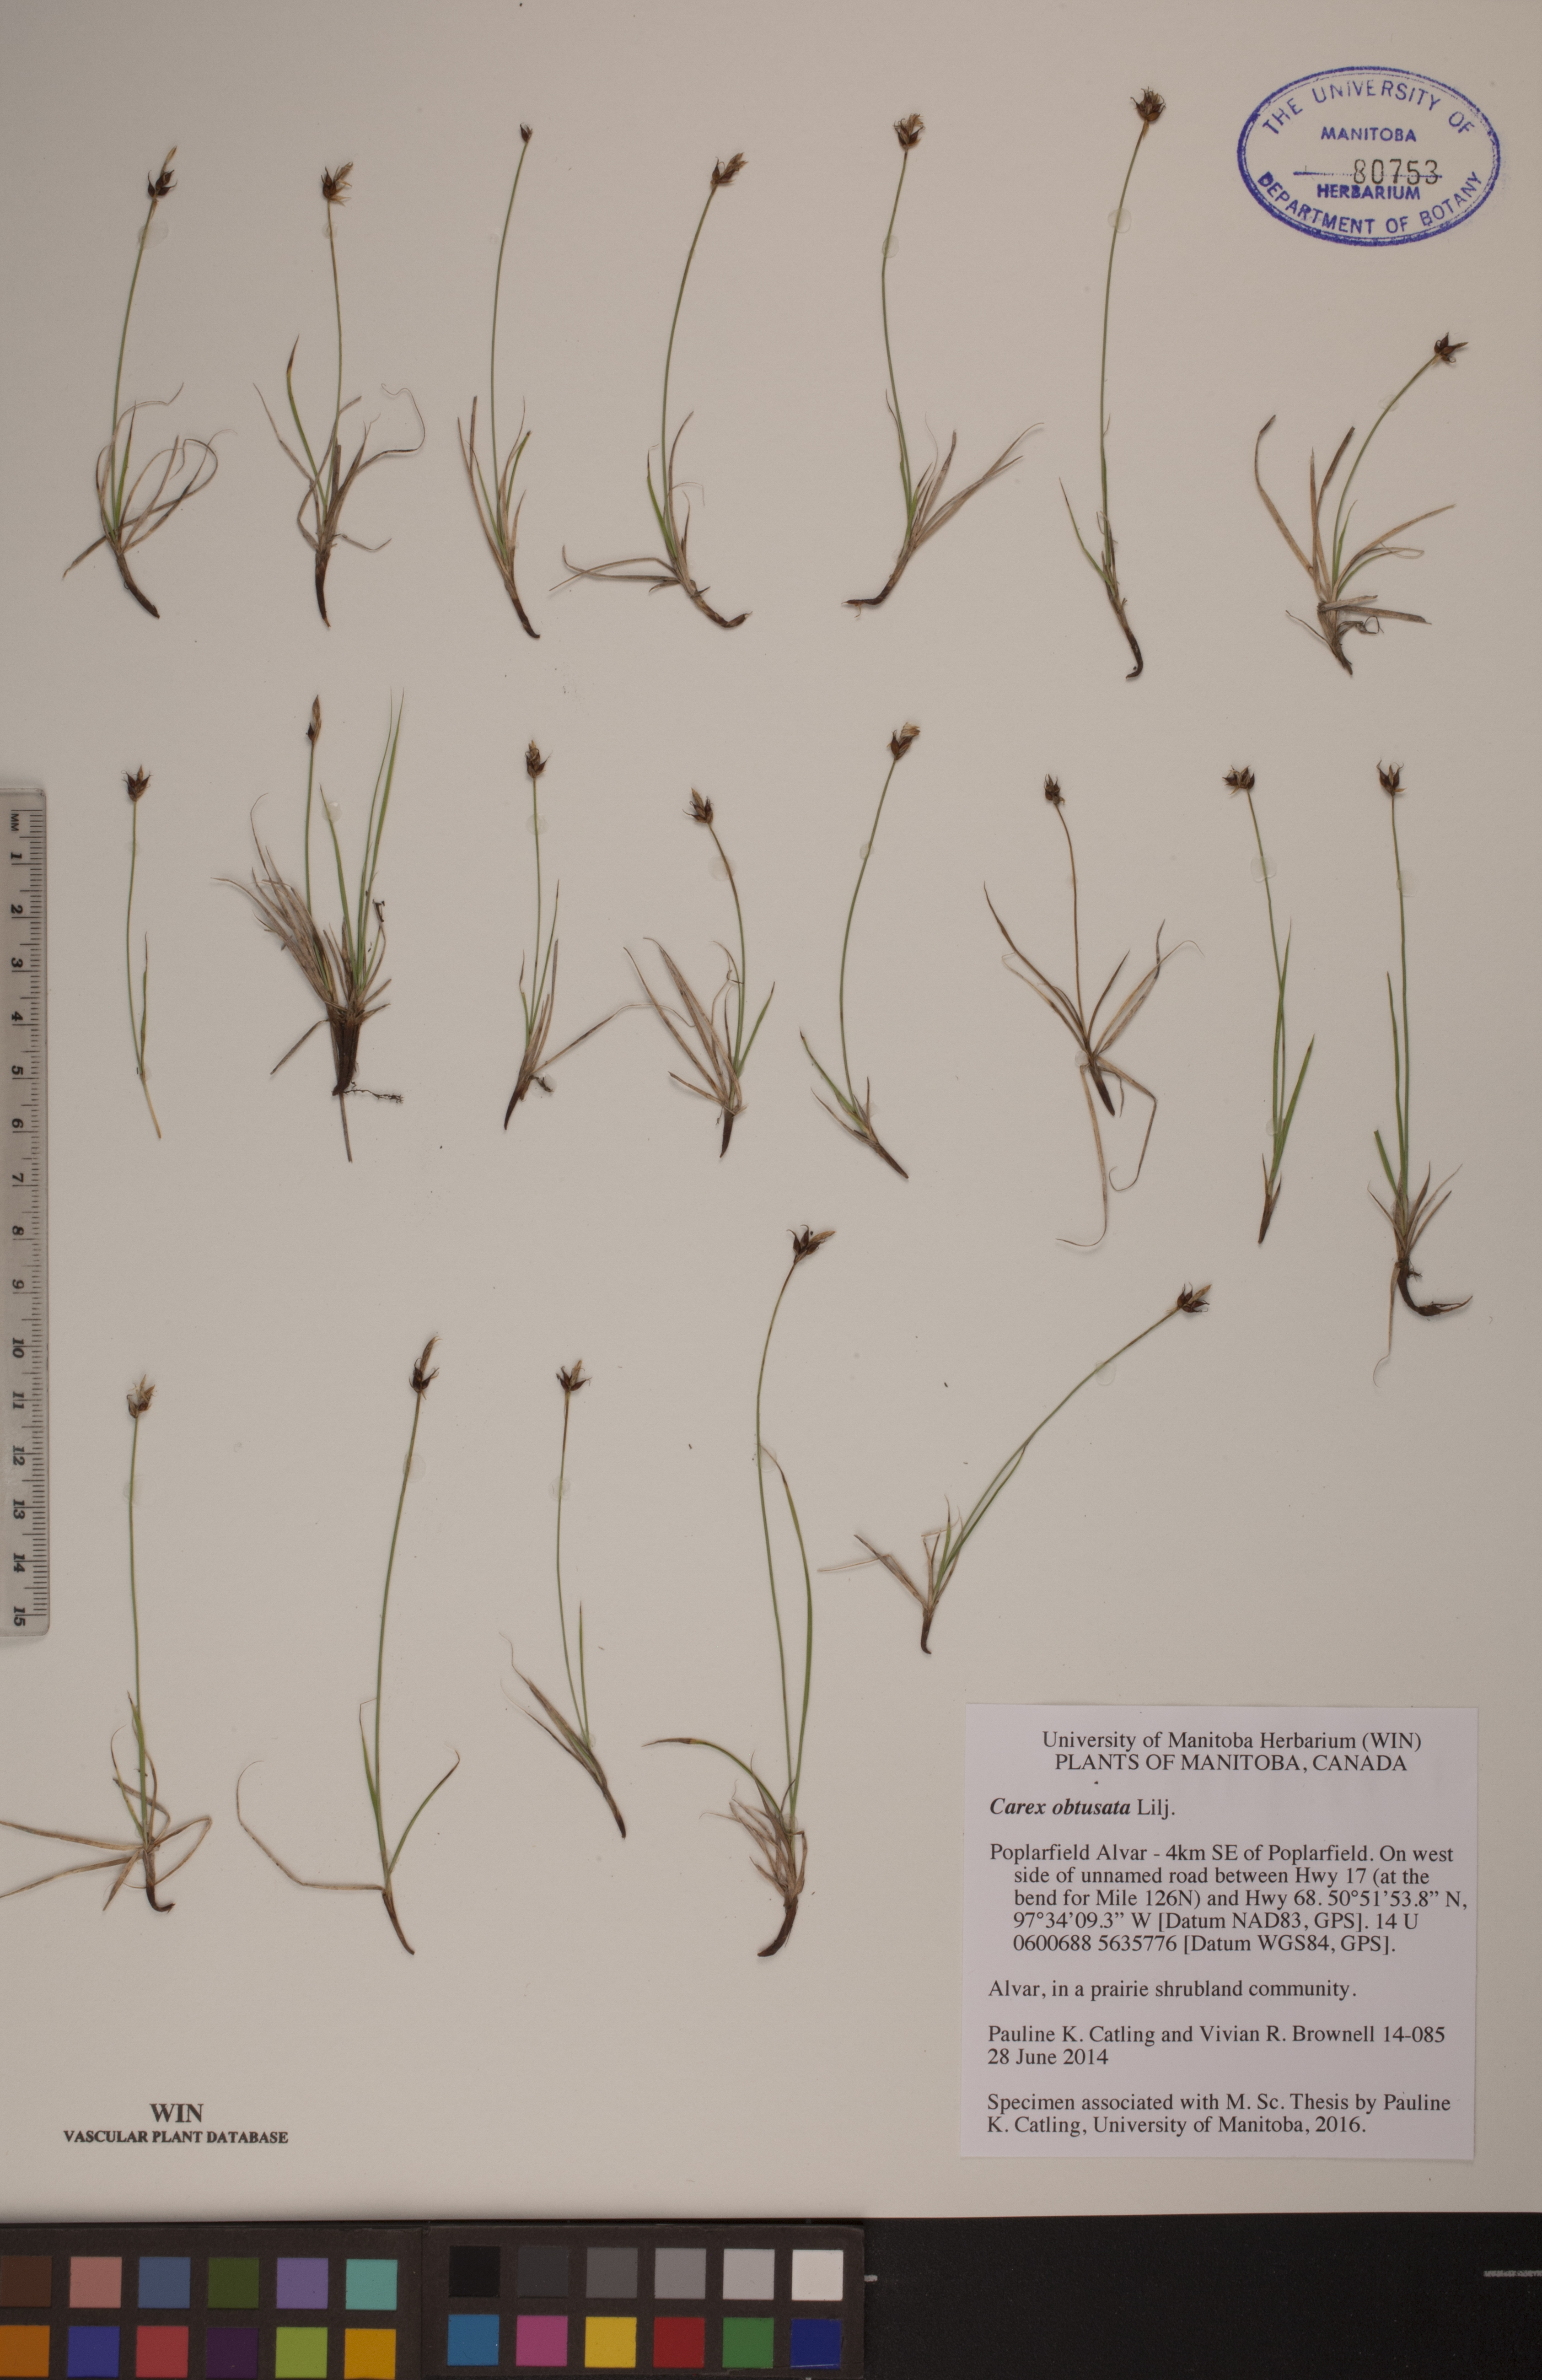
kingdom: Plantae
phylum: Tracheophyta
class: Liliopsida
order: Poales
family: Cyperaceae
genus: Carex
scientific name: Carex obtusata
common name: Blunt sedge
